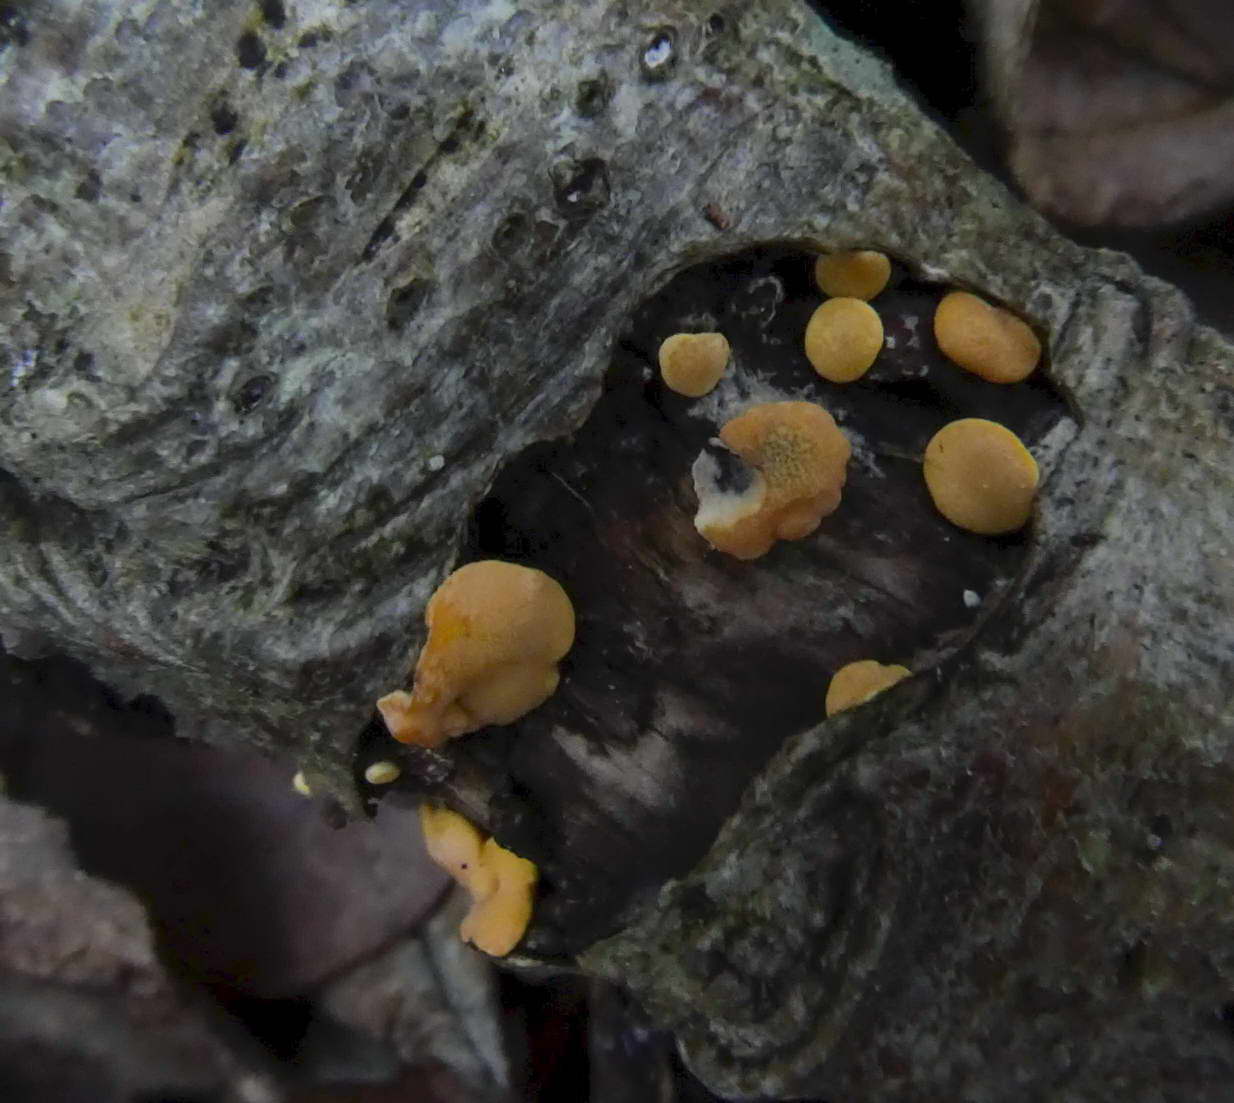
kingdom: Fungi
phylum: Ascomycota
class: Sordariomycetes
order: Hypocreales
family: Hypocreaceae
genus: Trichoderma
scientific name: Trichoderma aureoviride
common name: æggegul kødkerne
